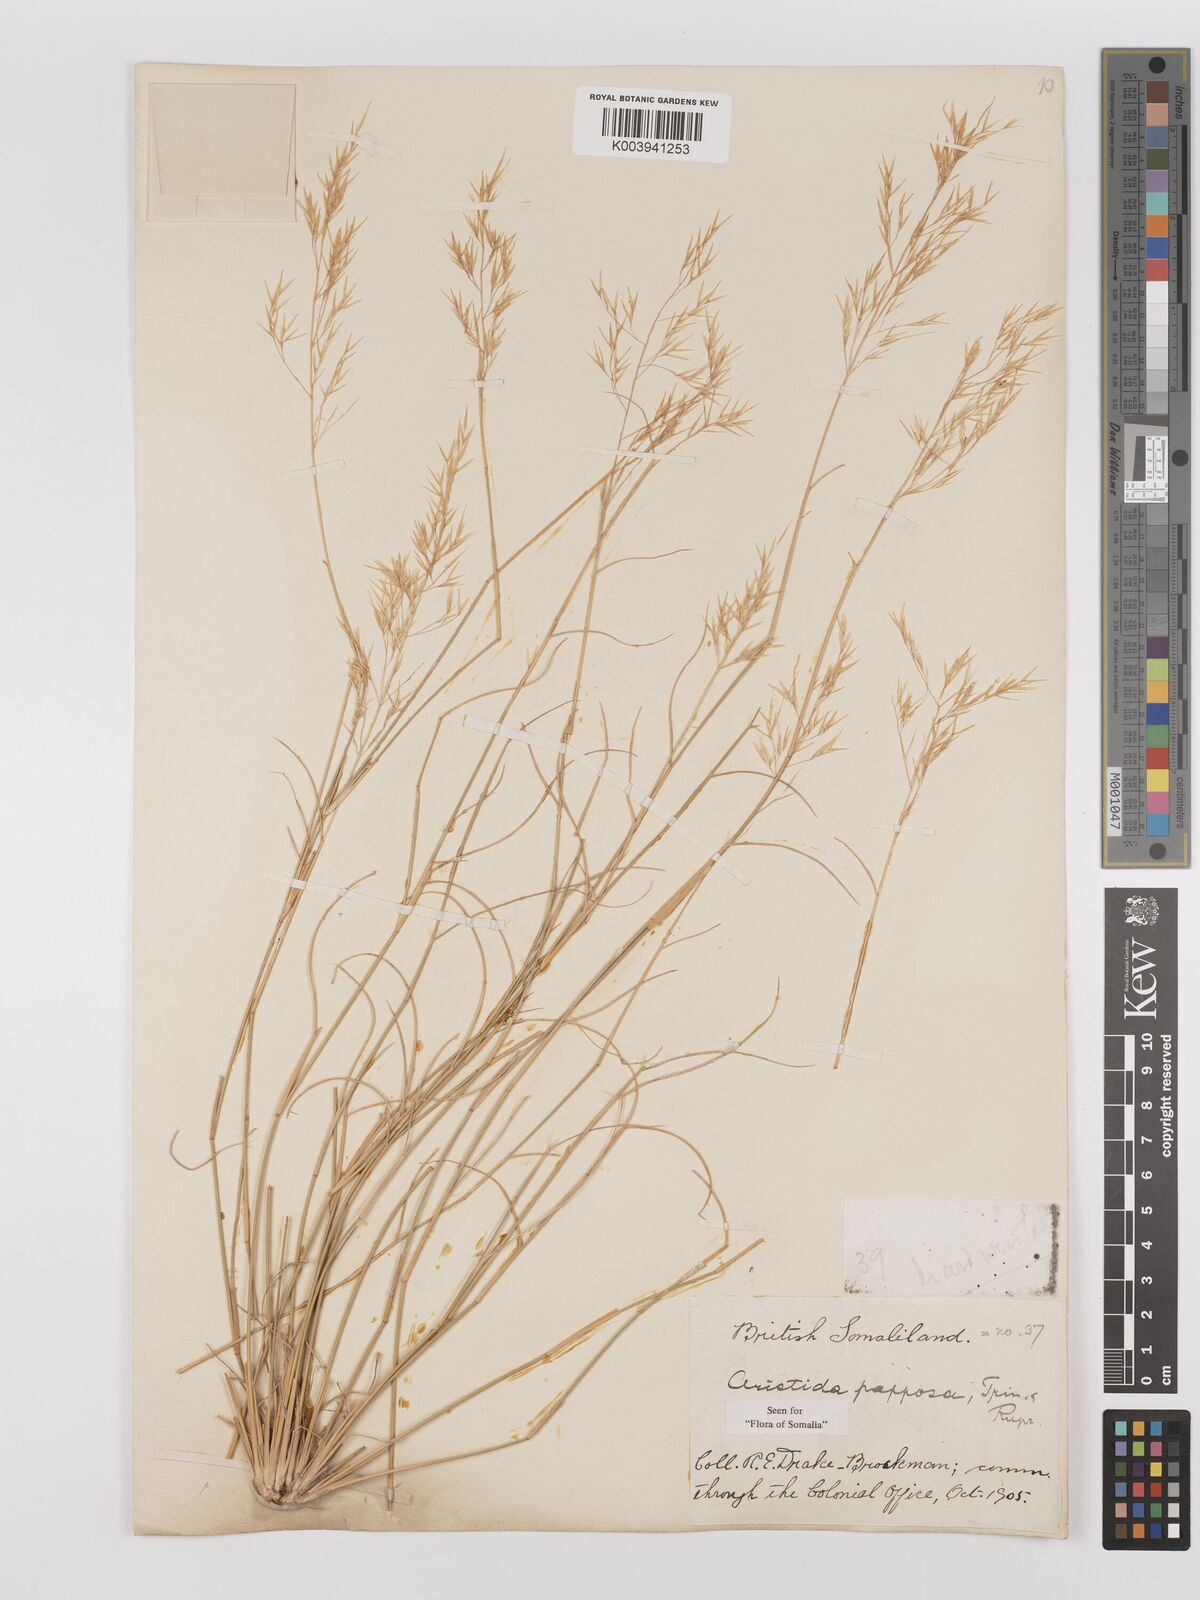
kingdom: Plantae
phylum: Tracheophyta
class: Liliopsida
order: Poales
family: Poaceae
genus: Stipagrostis
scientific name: Stipagrostis uniplumis
